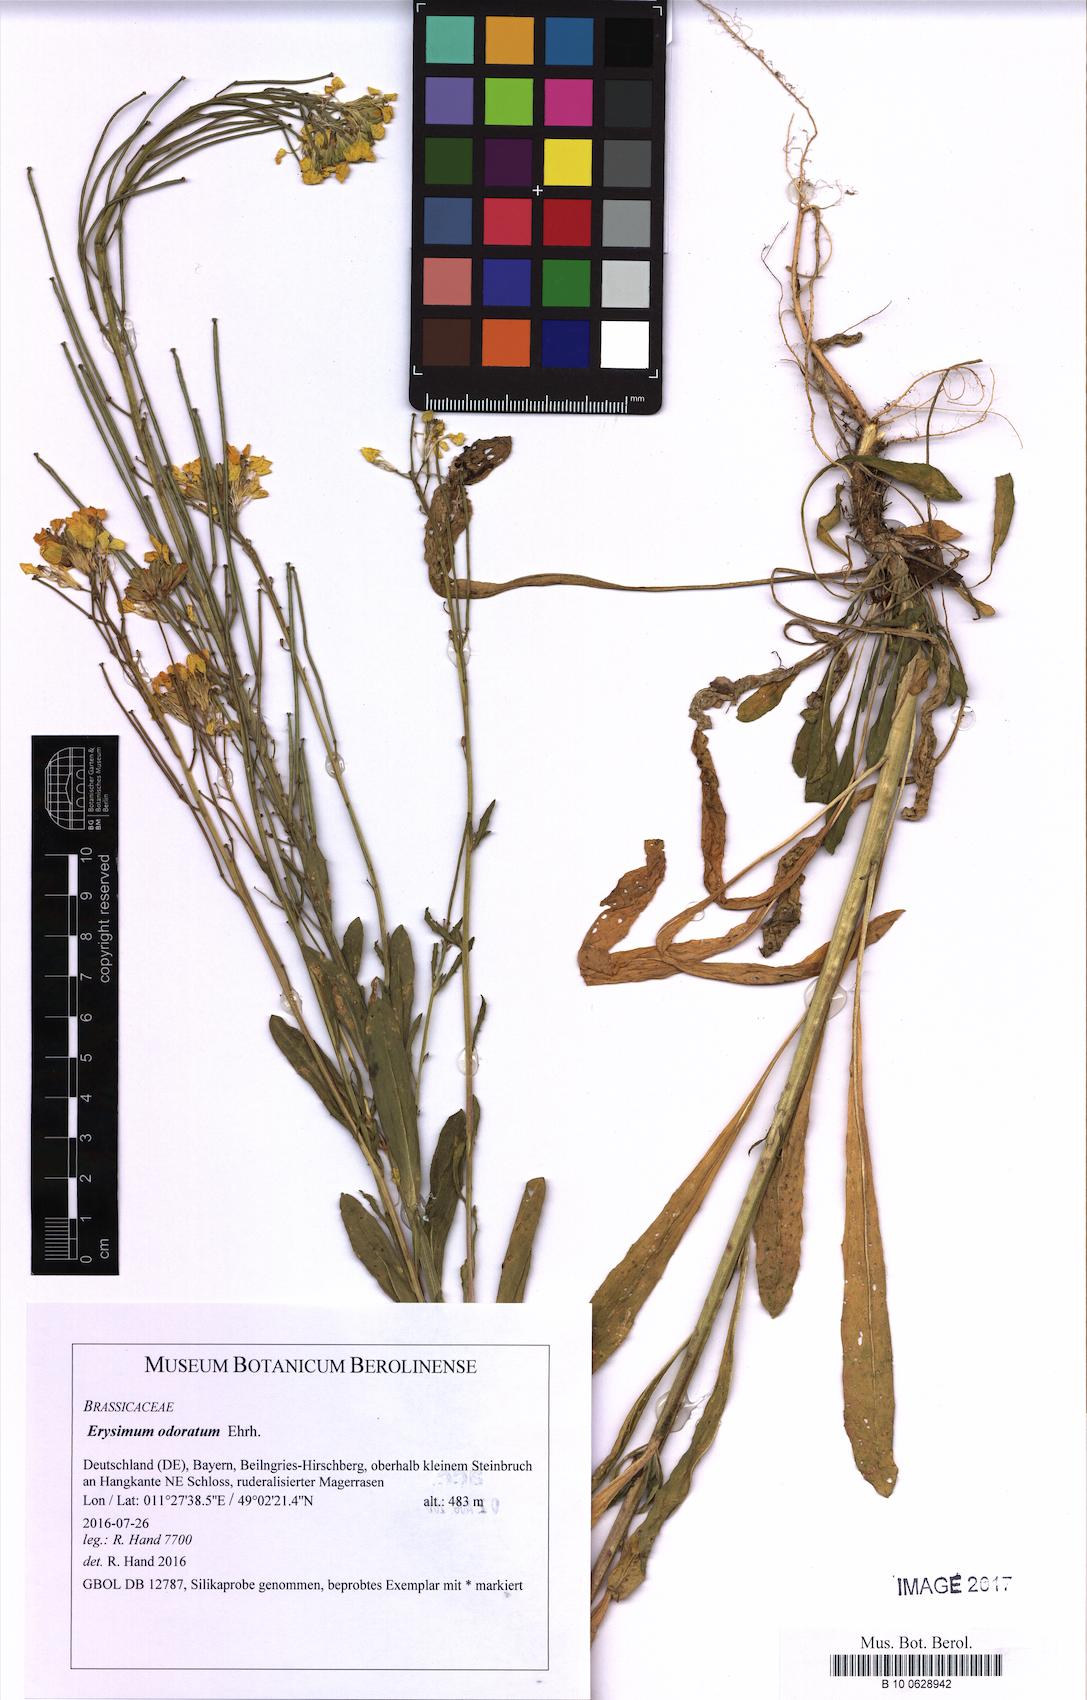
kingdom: Plantae
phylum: Tracheophyta
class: Magnoliopsida
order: Brassicales
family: Brassicaceae
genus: Erysimum
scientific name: Erysimum odoratum
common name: Smelly wallflower
